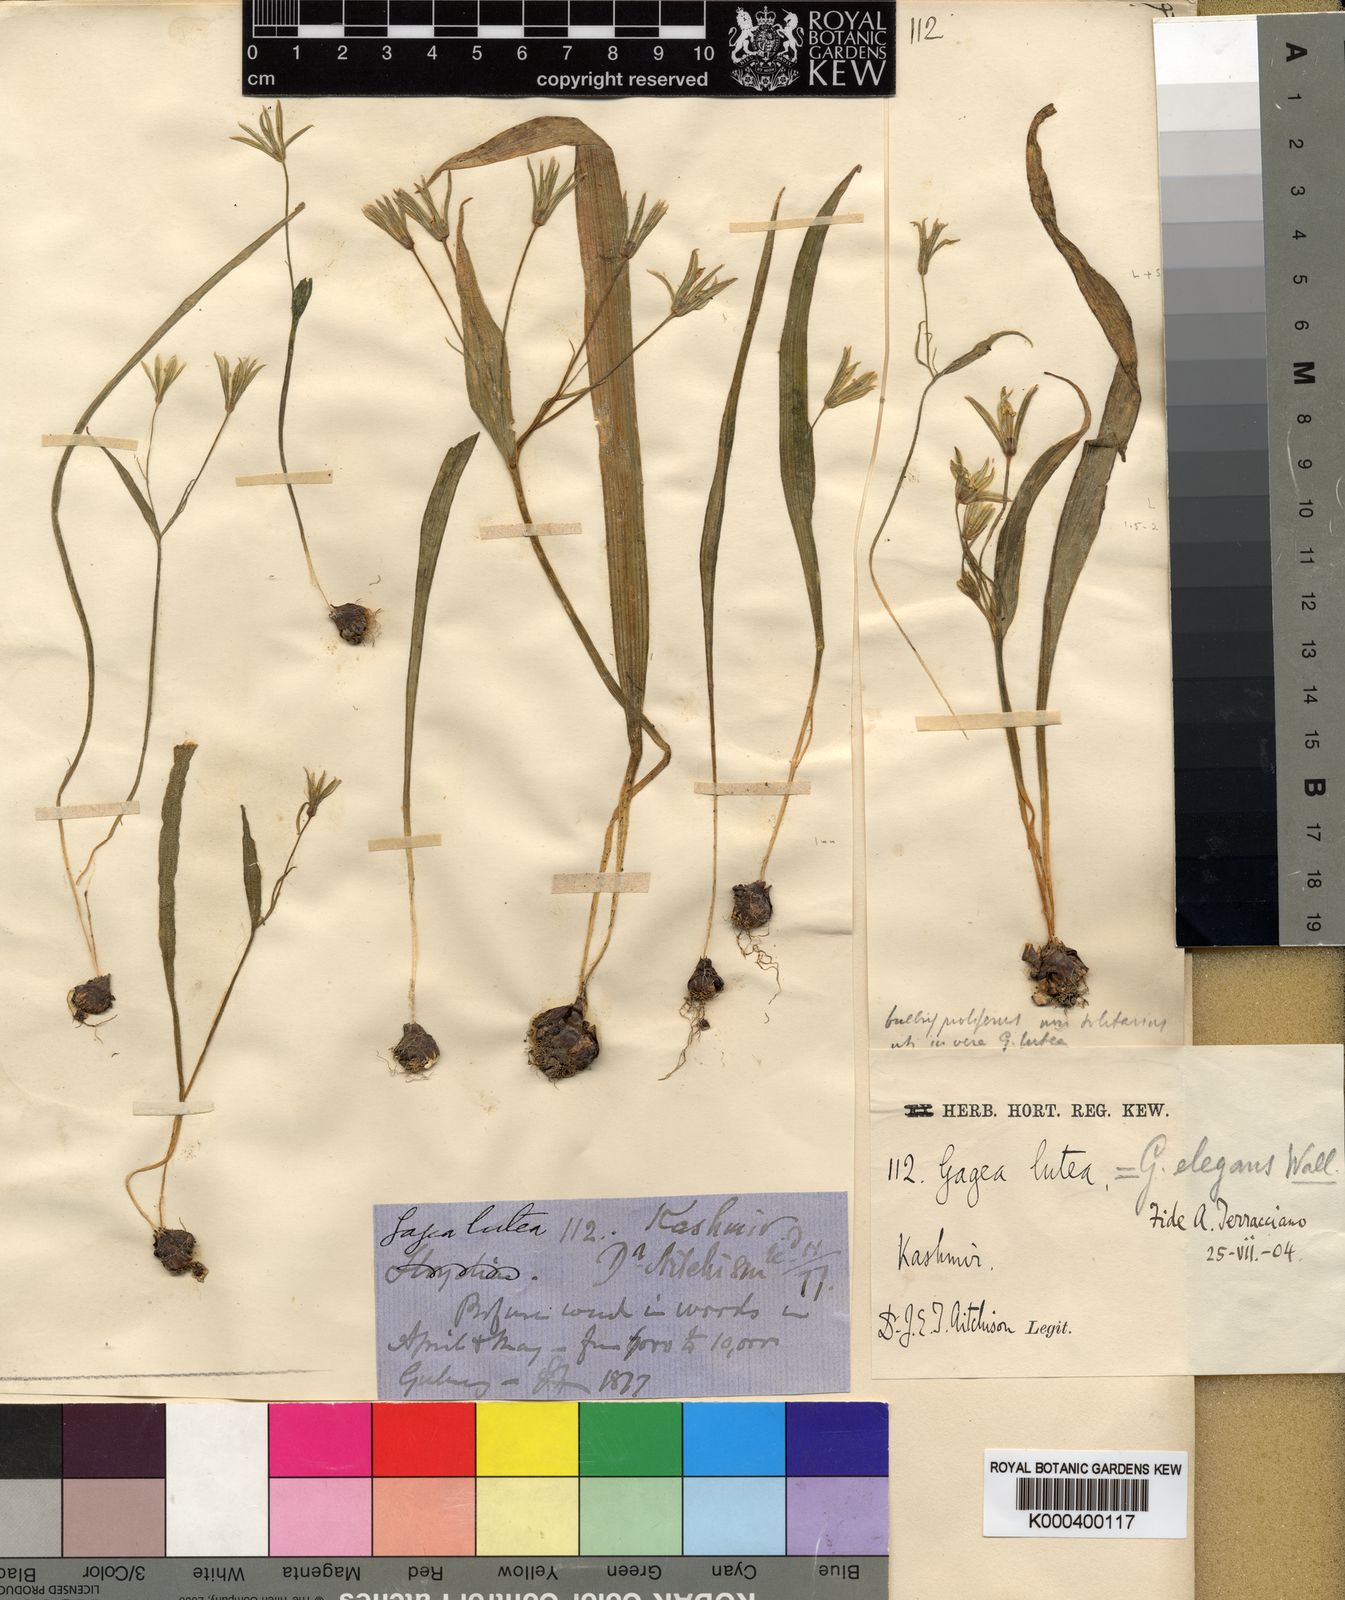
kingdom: Plantae
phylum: Tracheophyta
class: Liliopsida
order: Liliales
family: Liliaceae
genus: Gagea
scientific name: Gagea
